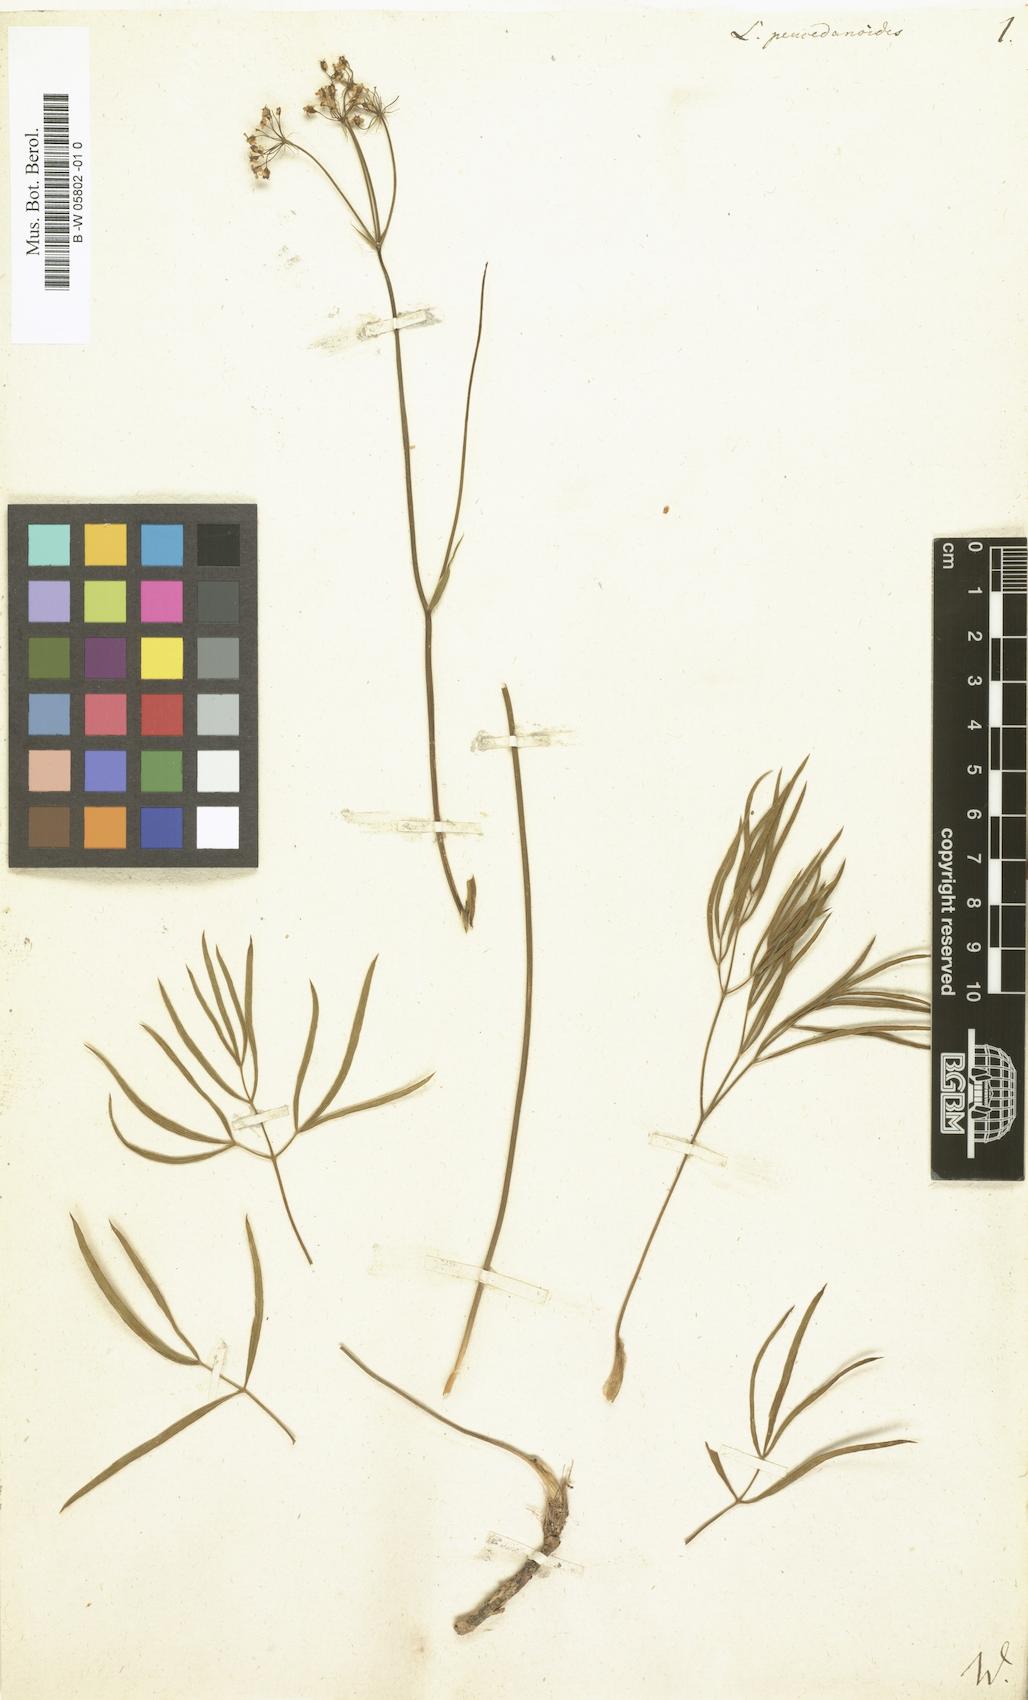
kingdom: Plantae
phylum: Tracheophyta
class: Magnoliopsida
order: Apiales
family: Apiaceae
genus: Laserpitium
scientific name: Laserpitium peucedanoides
